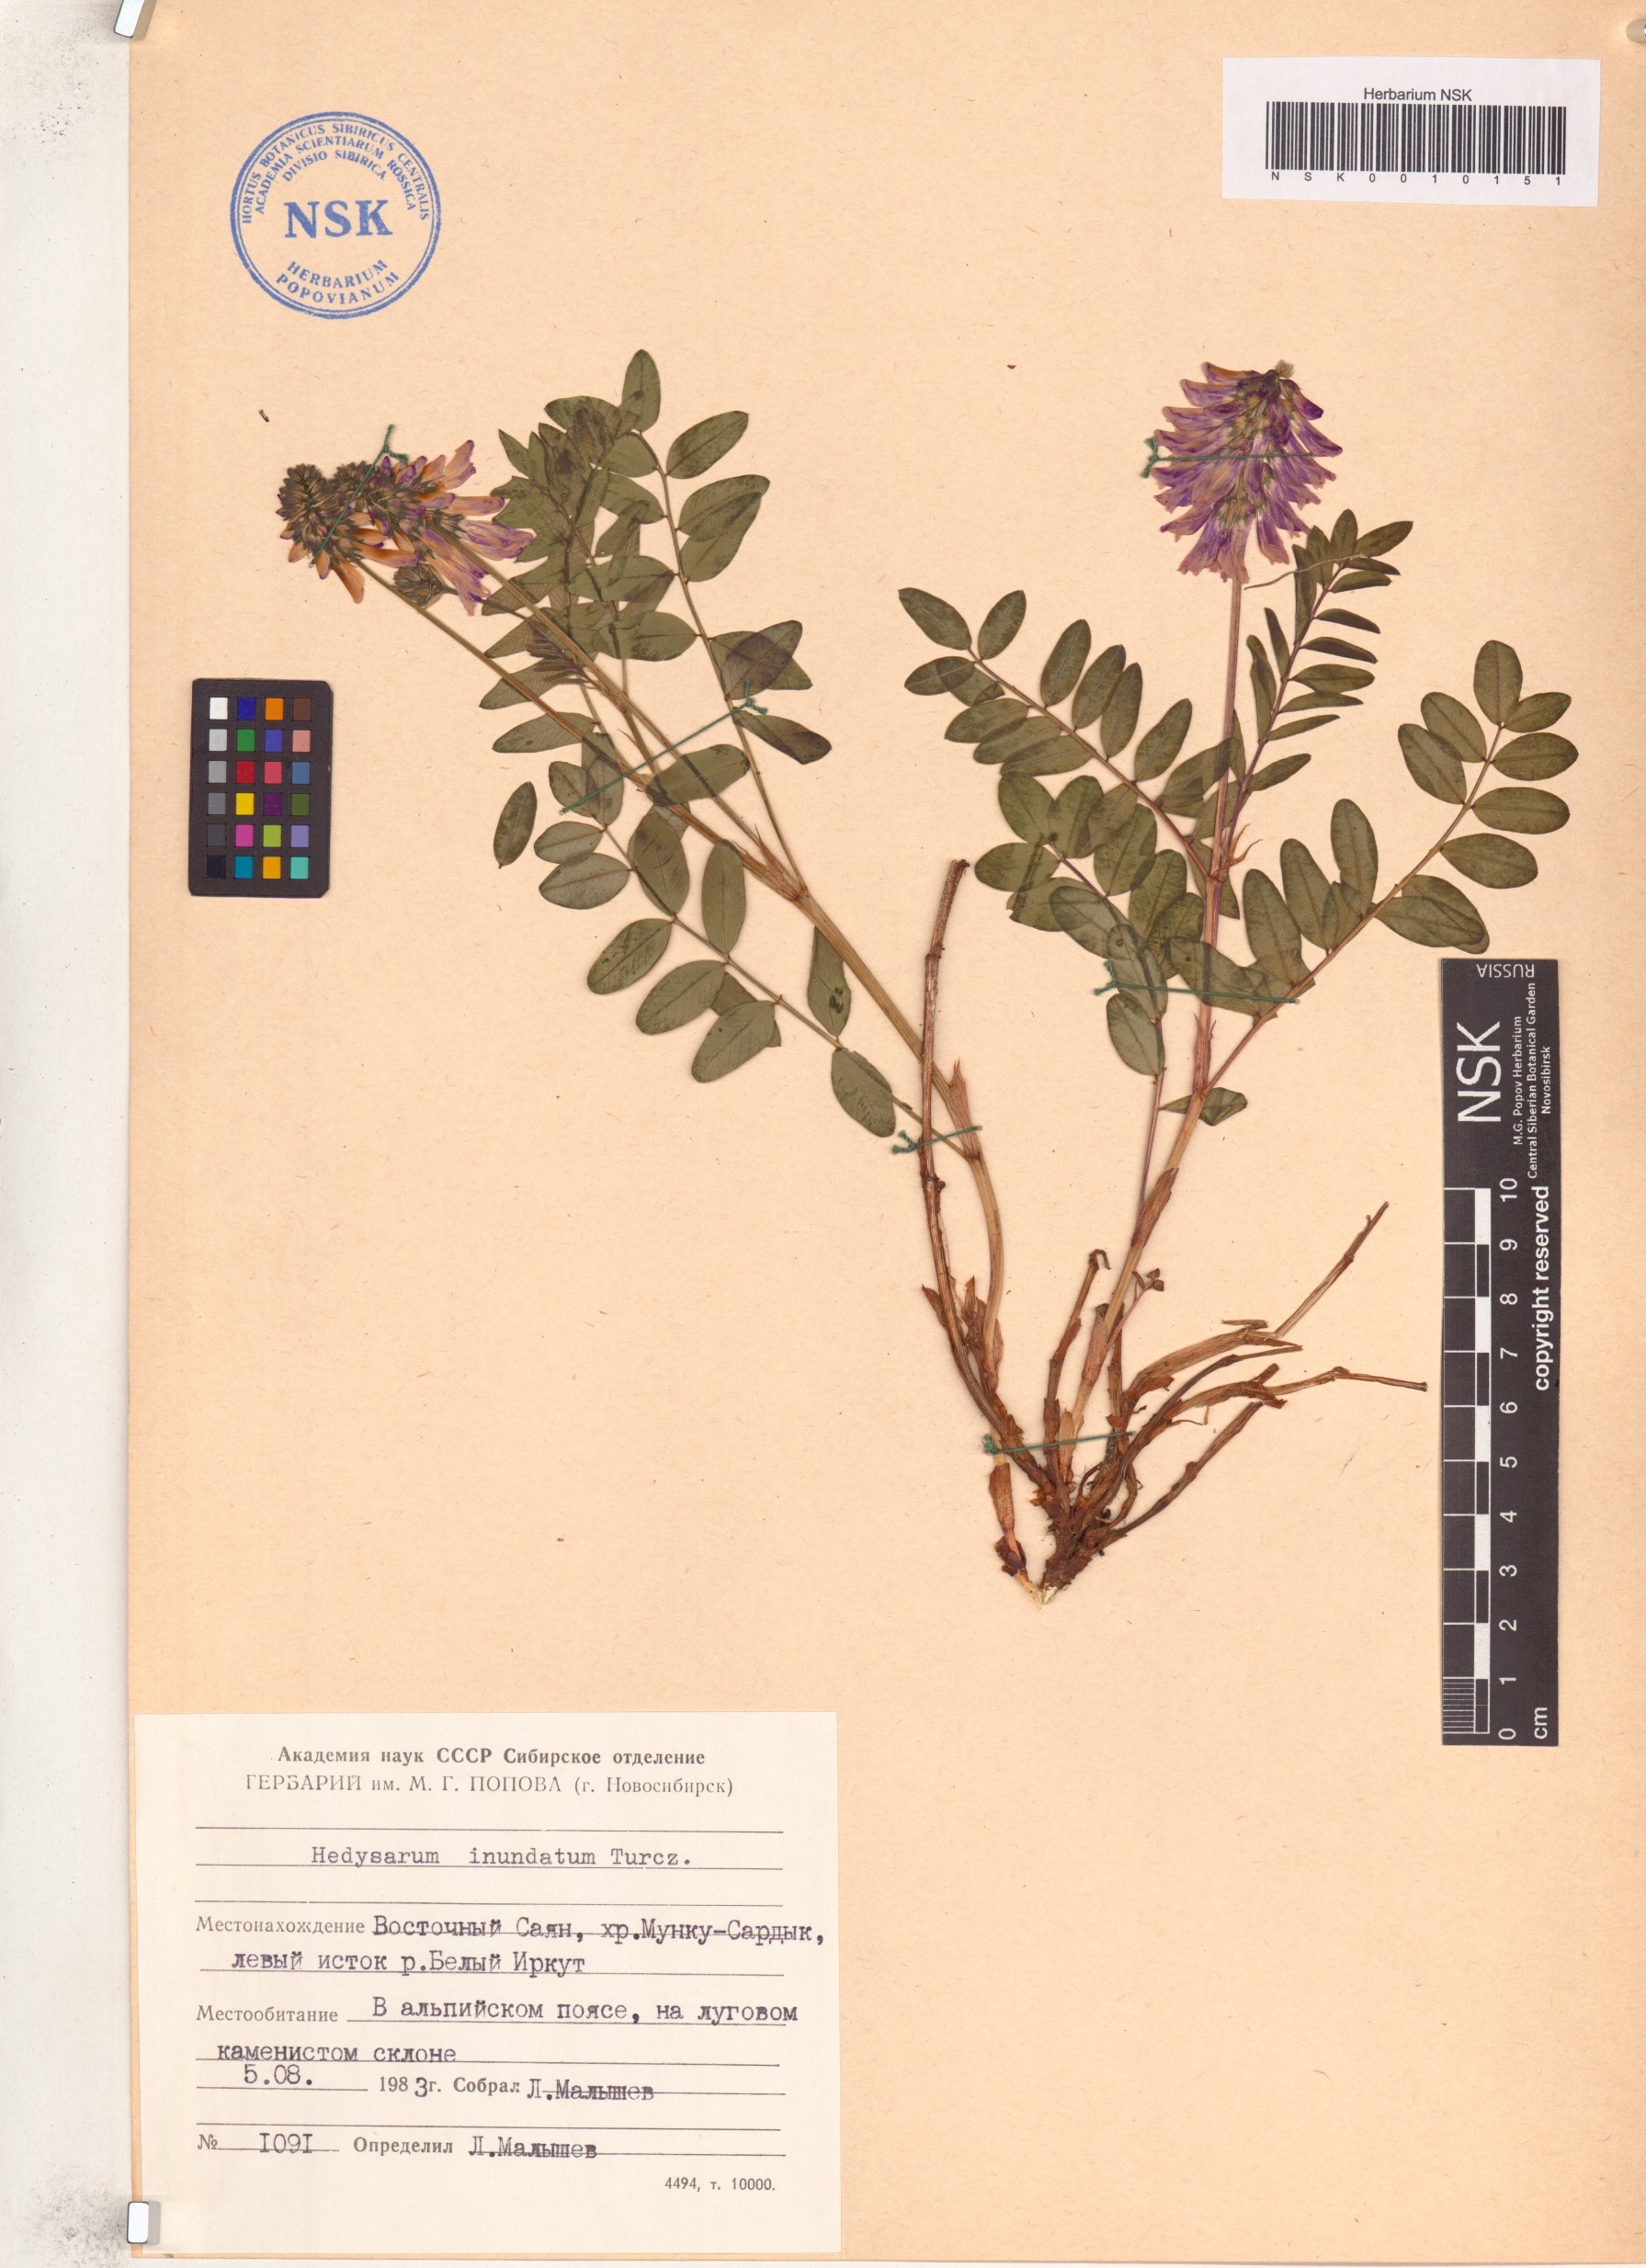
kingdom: Plantae
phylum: Tracheophyta
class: Magnoliopsida
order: Fabales
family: Fabaceae
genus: Hedysarum
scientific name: Hedysarum inundatum
